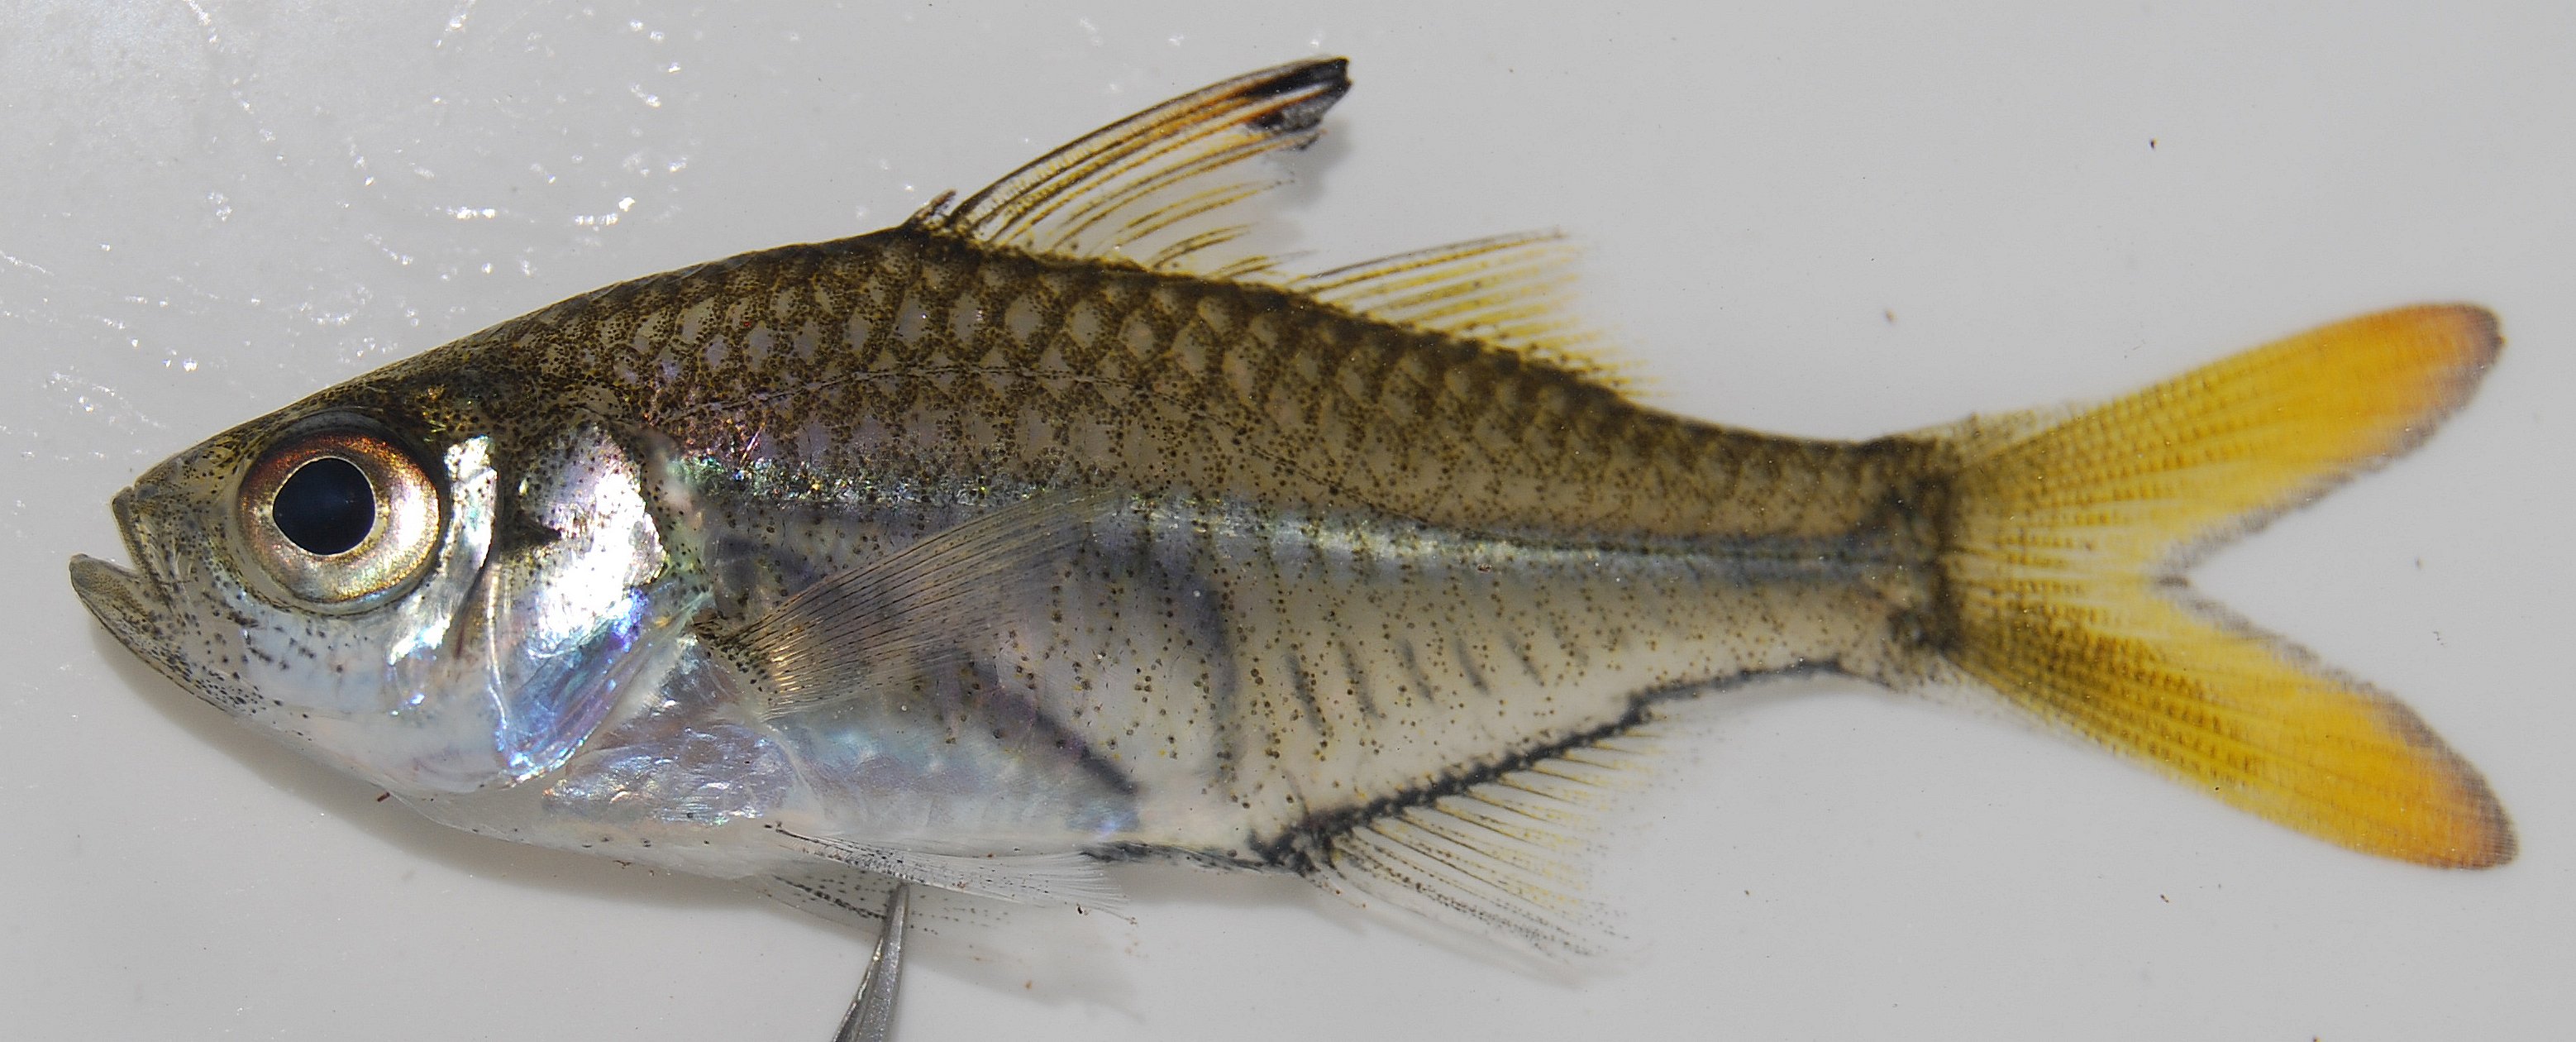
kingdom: Animalia
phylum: Chordata
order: Perciformes
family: Ambassidae
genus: Ambassis
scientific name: Ambassis
